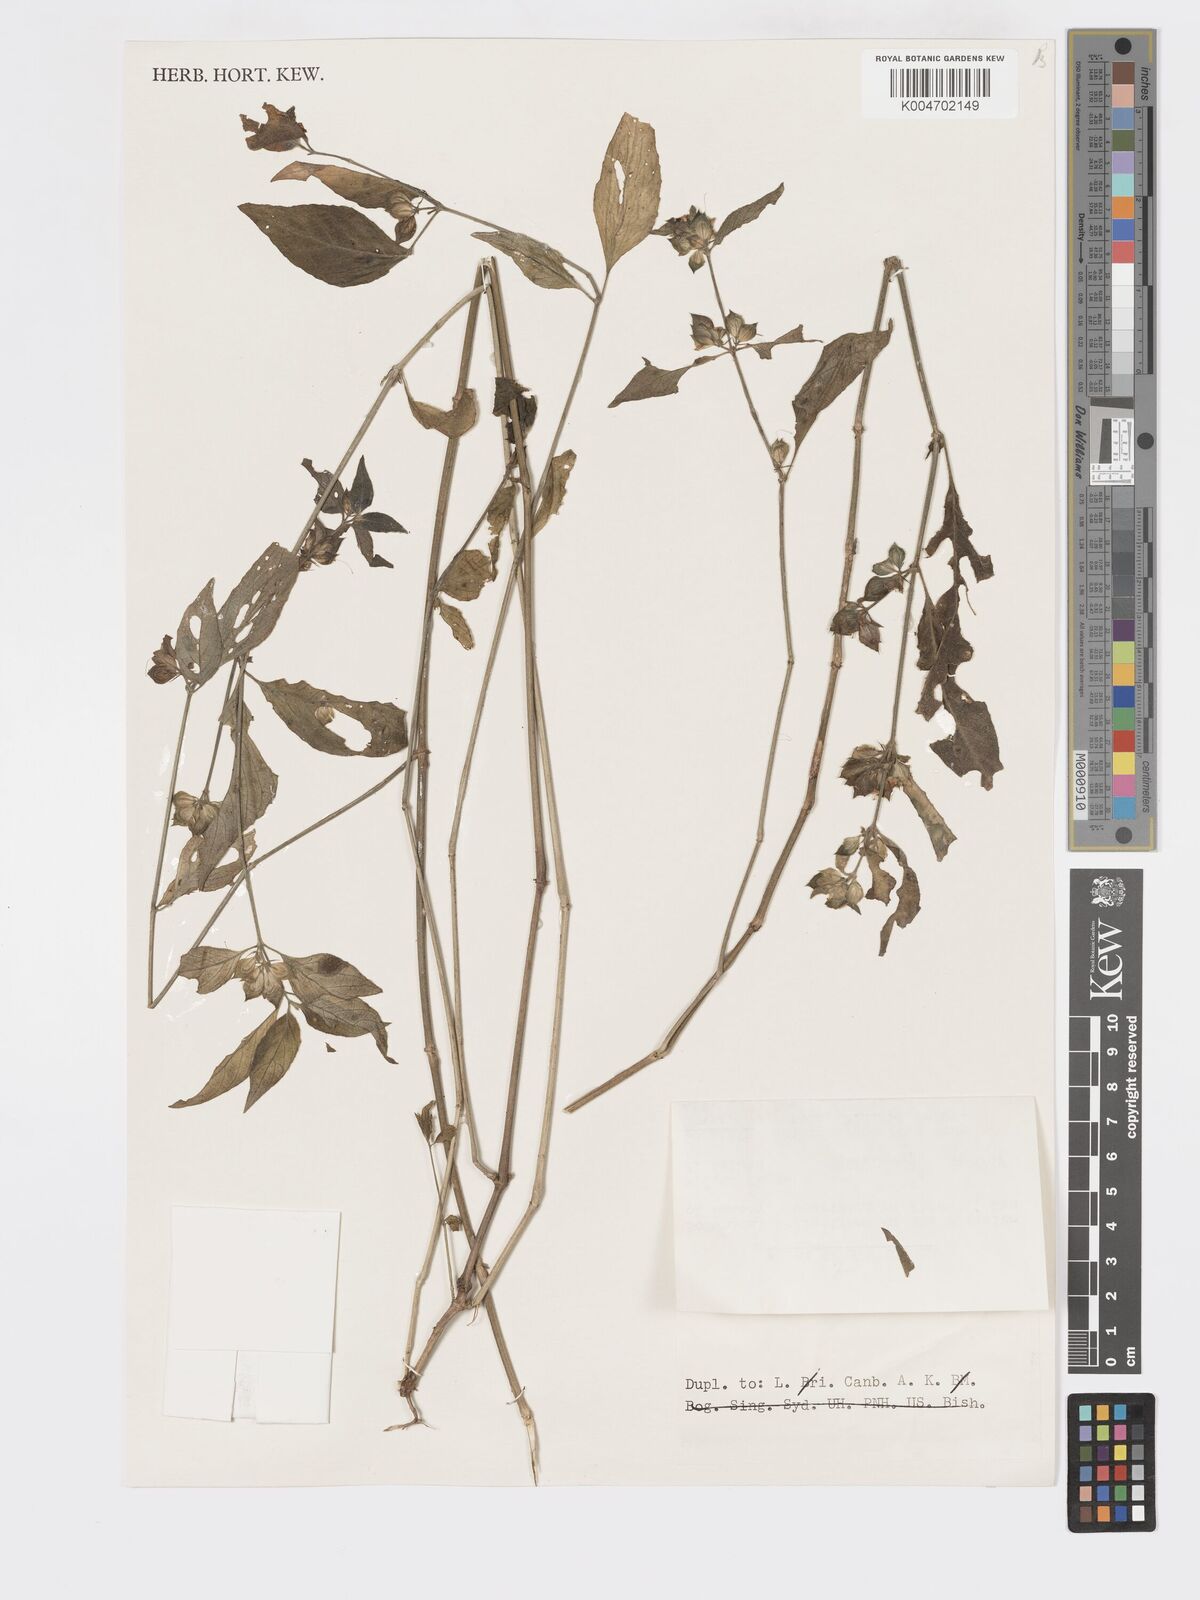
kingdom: Plantae
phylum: Tracheophyta
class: Magnoliopsida
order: Lamiales
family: Acanthaceae
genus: Dicliptera
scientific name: Dicliptera
